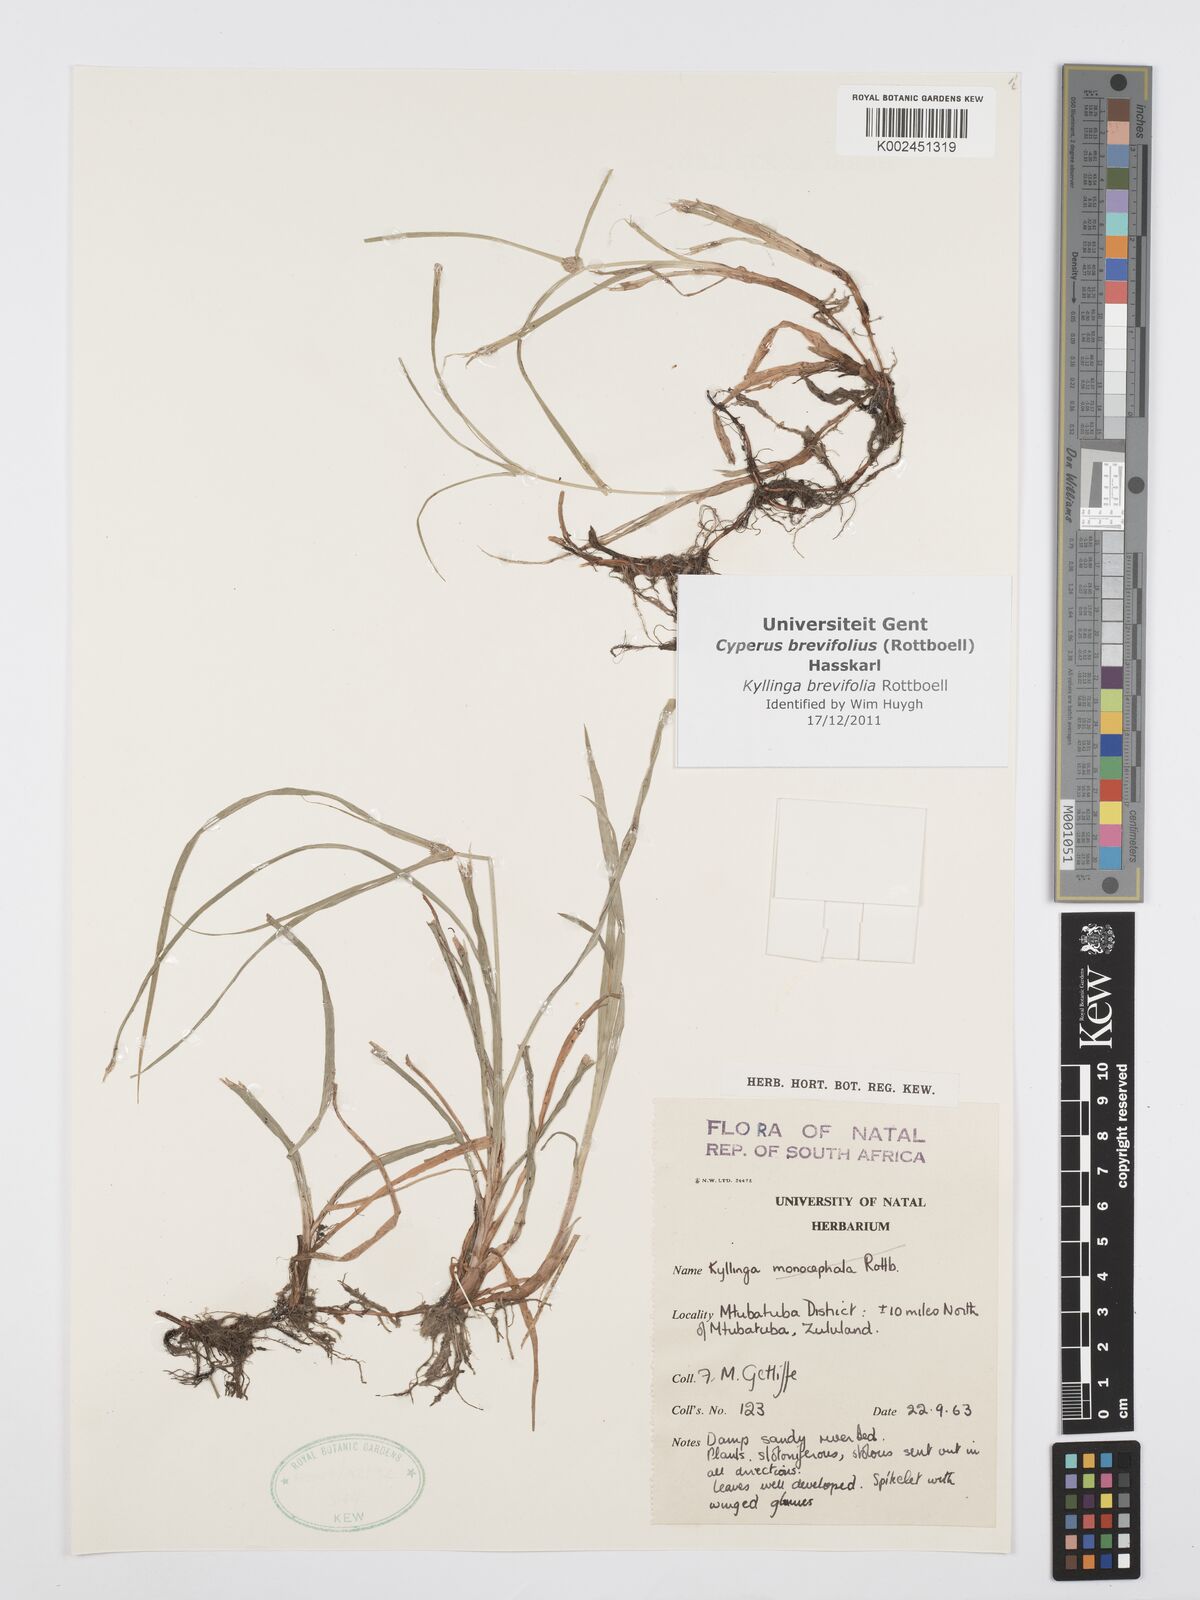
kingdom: Plantae
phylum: Tracheophyta
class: Liliopsida
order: Poales
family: Cyperaceae
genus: Cyperus
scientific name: Cyperus brevifolius
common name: Globe kyllinga
